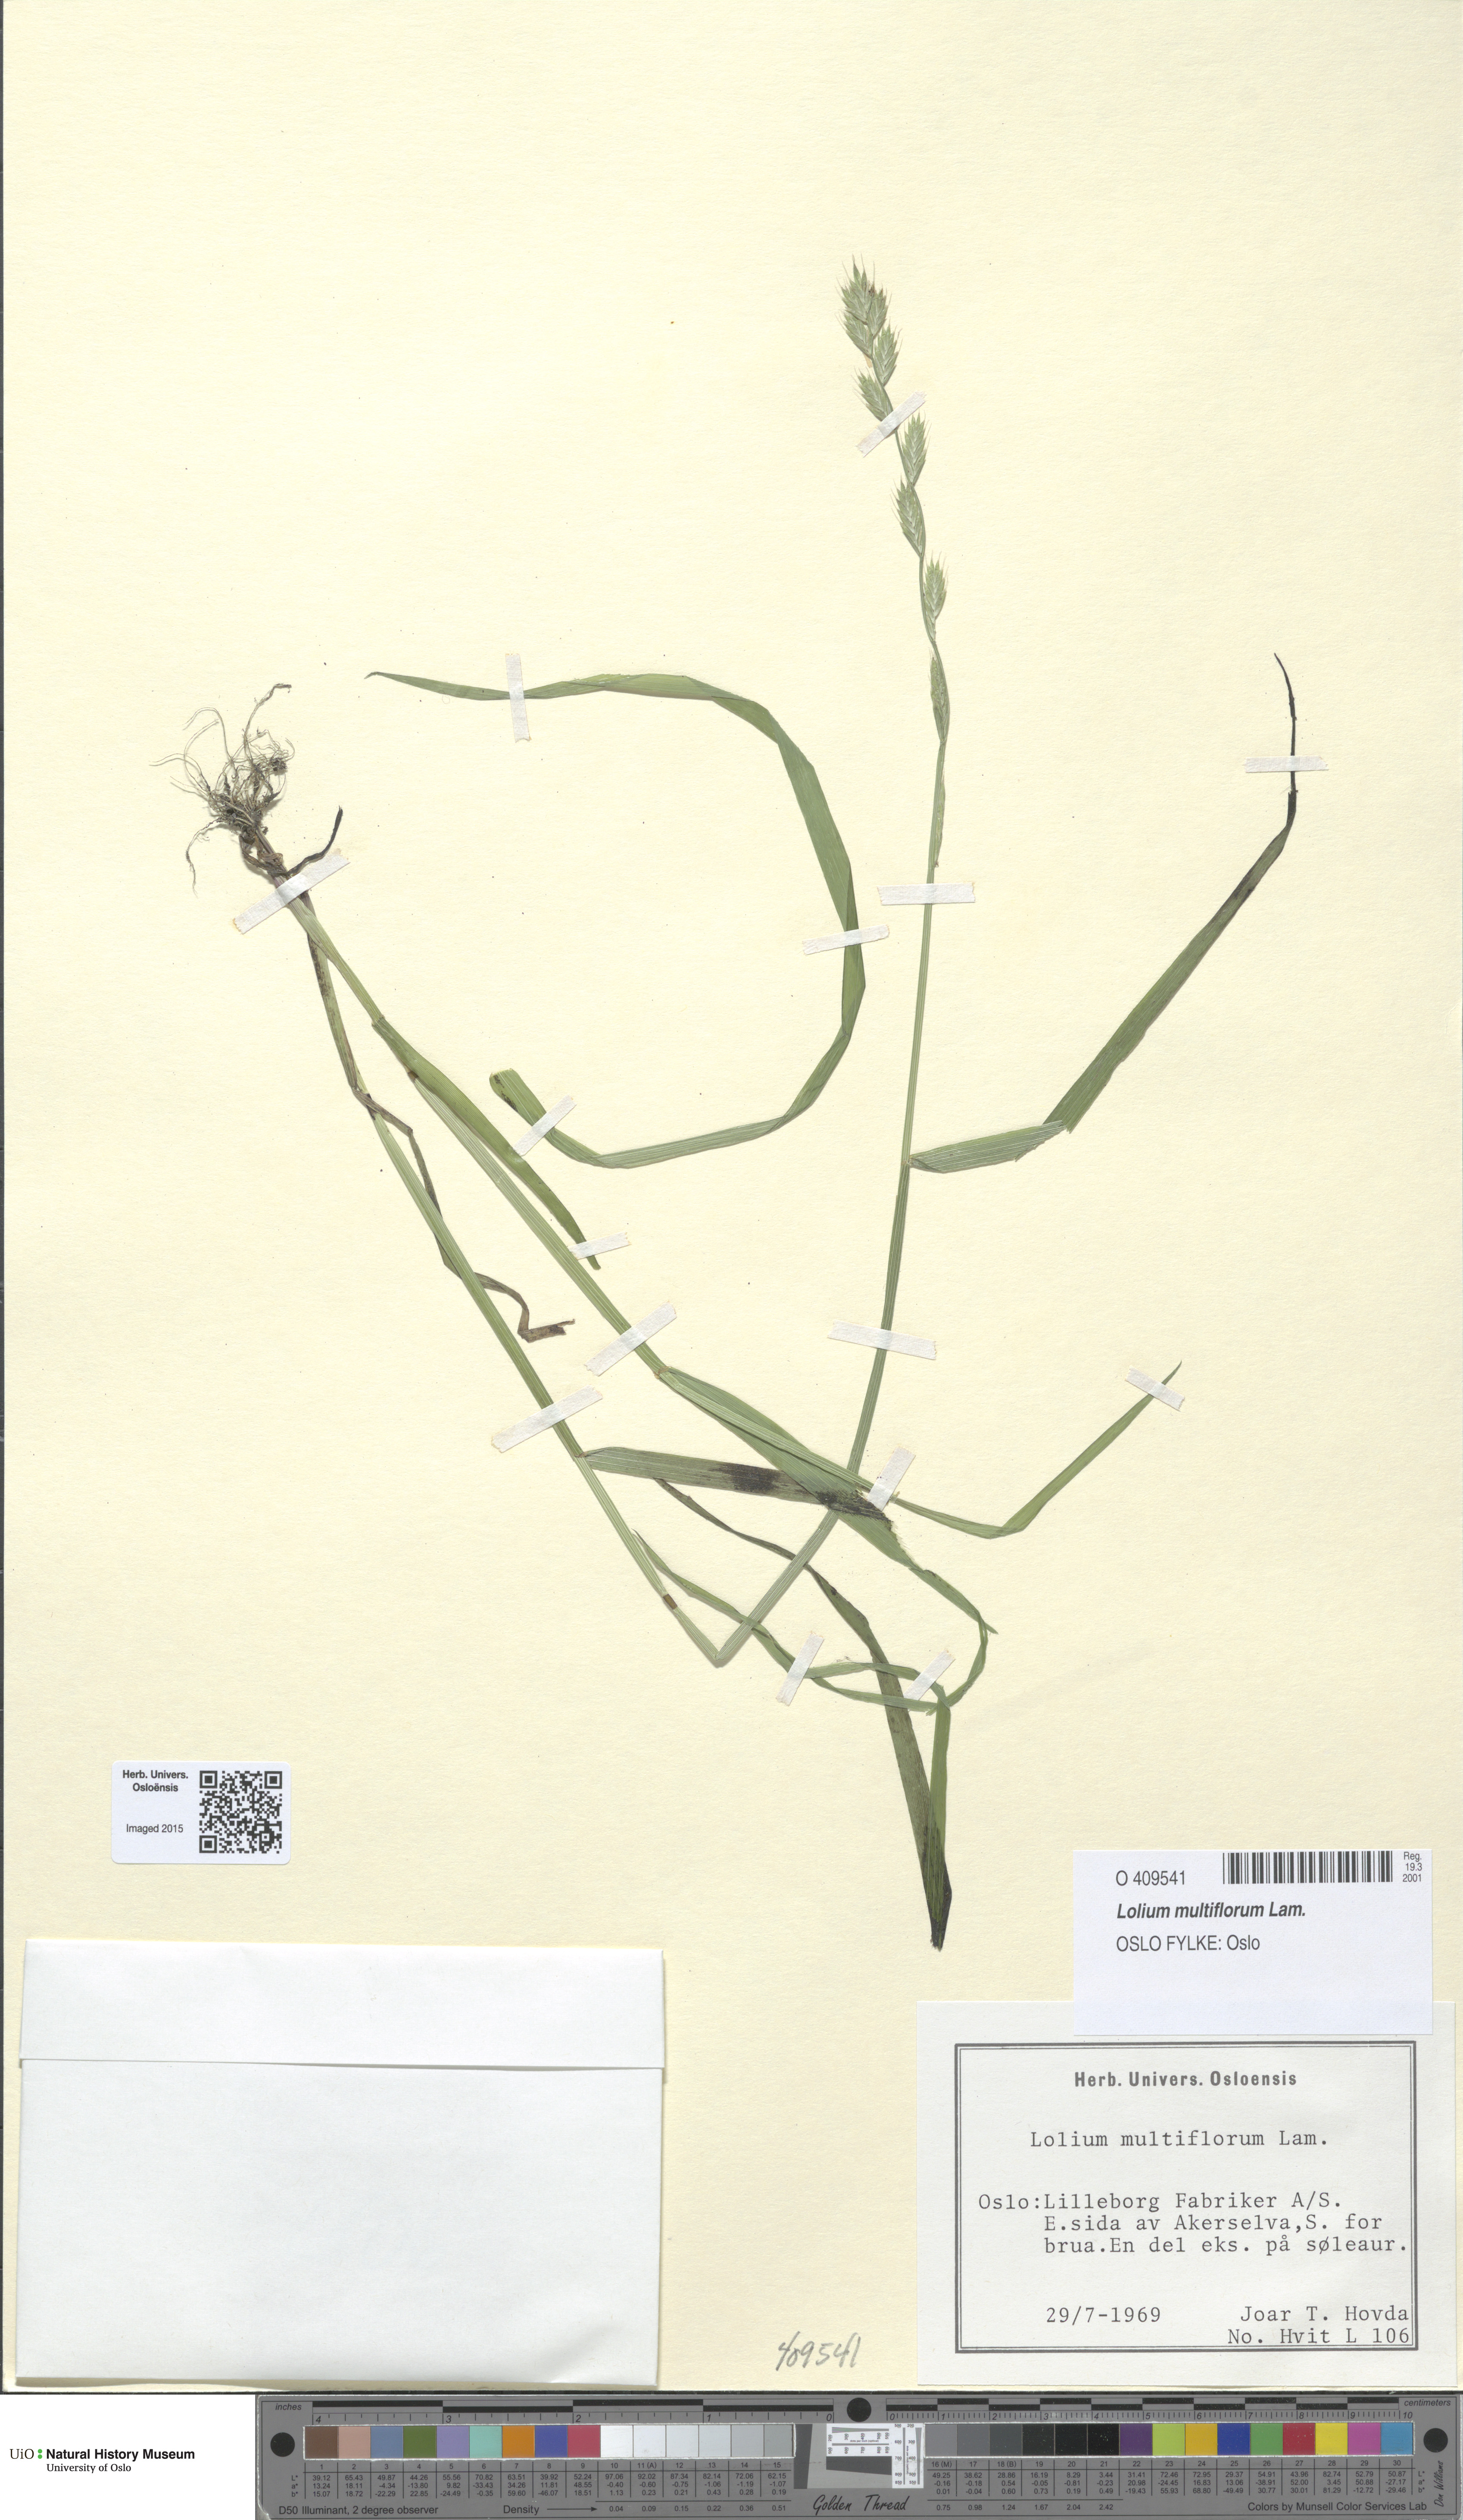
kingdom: Plantae
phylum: Tracheophyta
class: Liliopsida
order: Poales
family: Poaceae
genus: Lolium
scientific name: Lolium multiflorum
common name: Annual ryegrass
